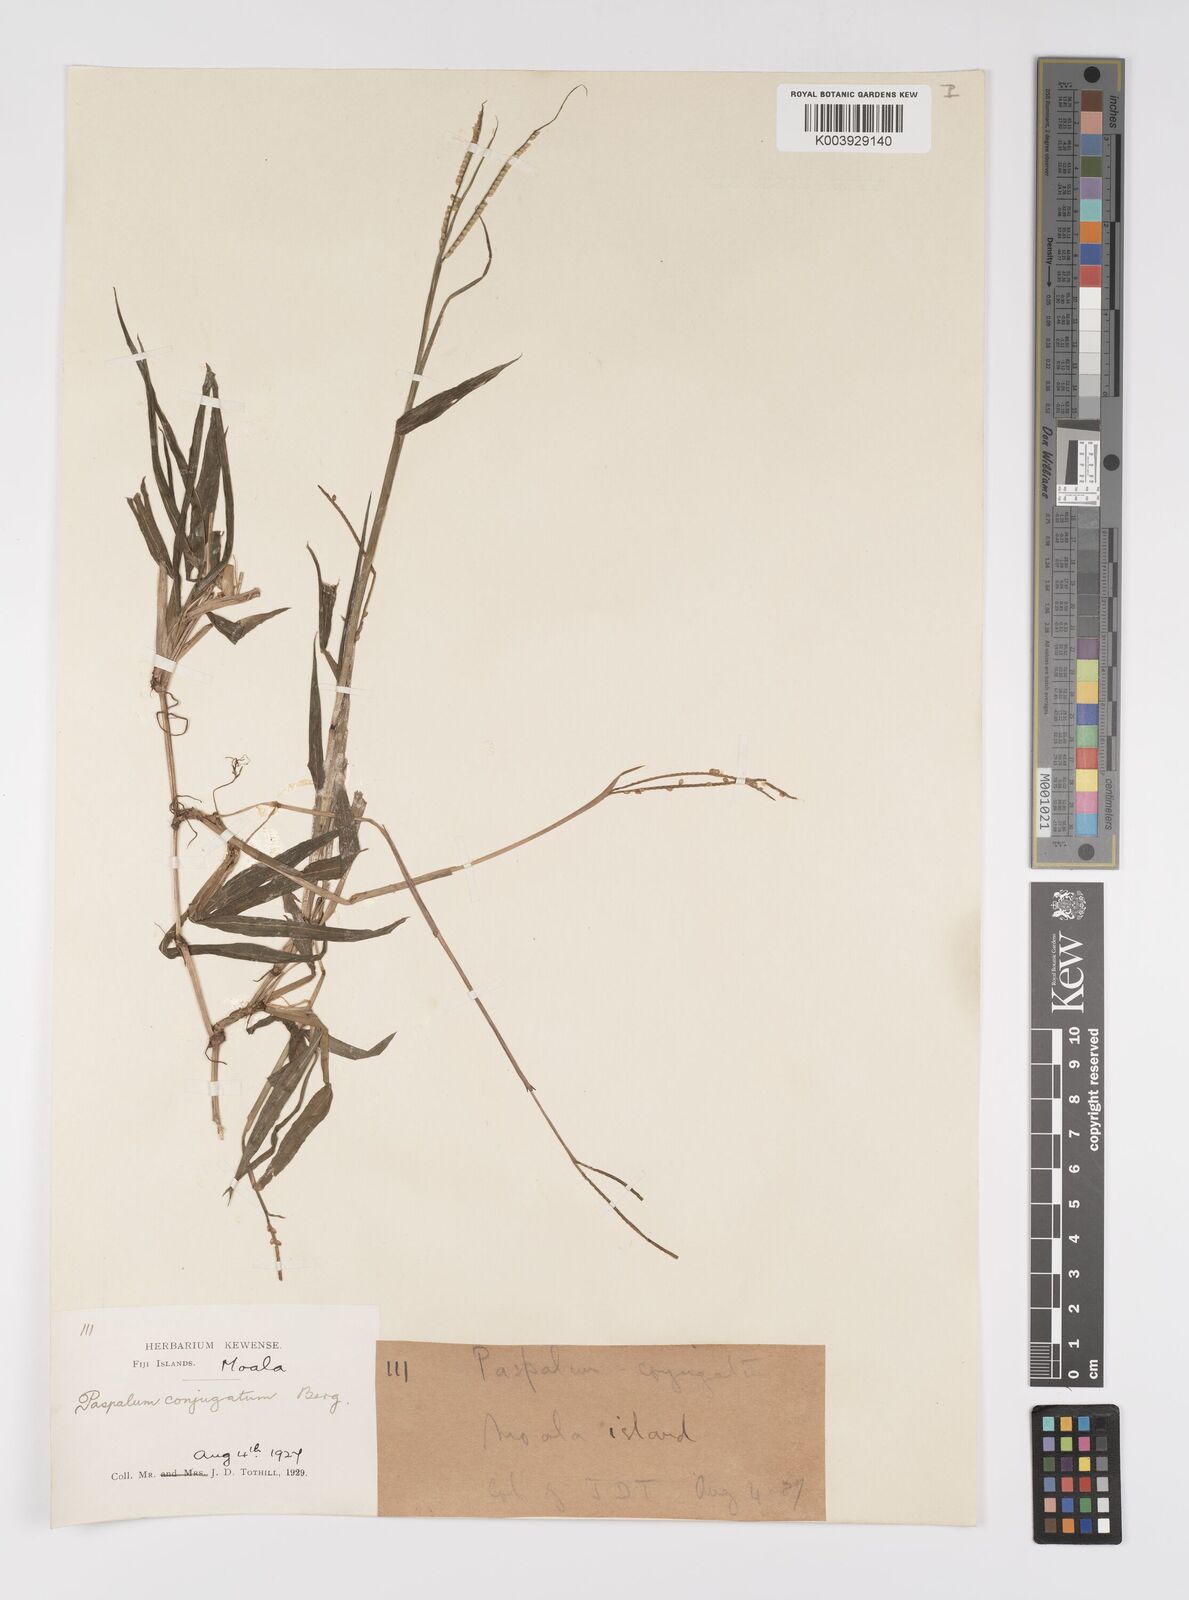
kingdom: Plantae
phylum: Tracheophyta
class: Liliopsida
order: Poales
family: Poaceae
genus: Paspalum
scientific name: Paspalum conjugatum
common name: Hilograss
